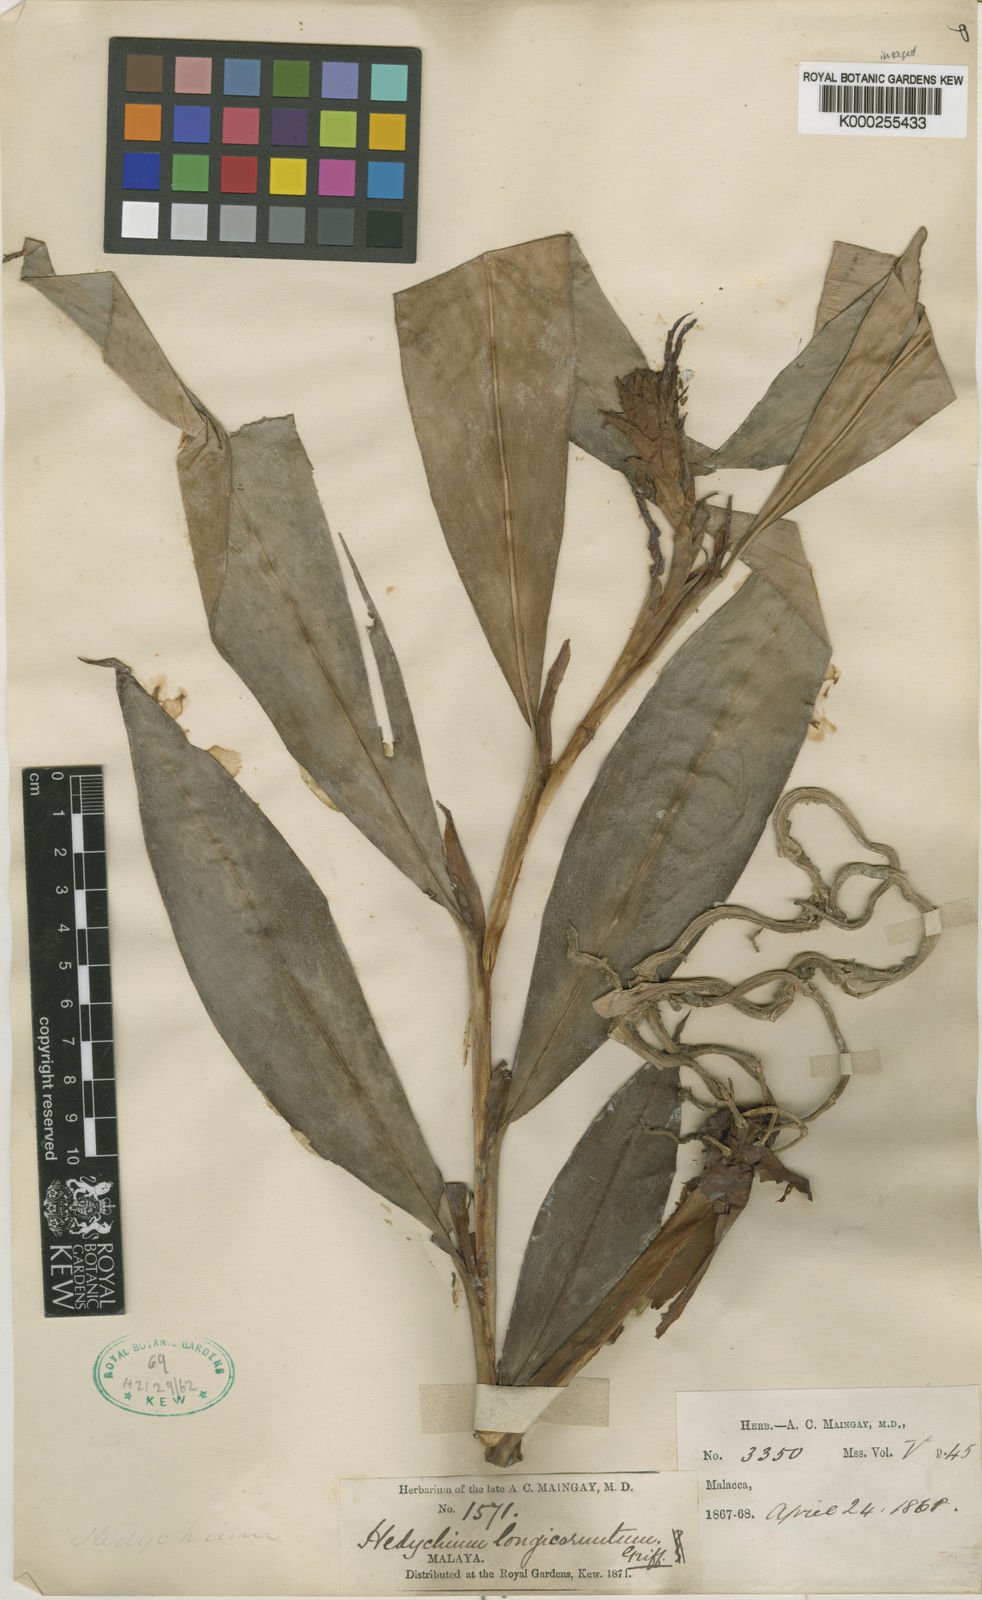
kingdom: Plantae
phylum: Tracheophyta
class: Liliopsida
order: Zingiberales
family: Zingiberaceae
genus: Hedychium
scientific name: Hedychium longicornutum
